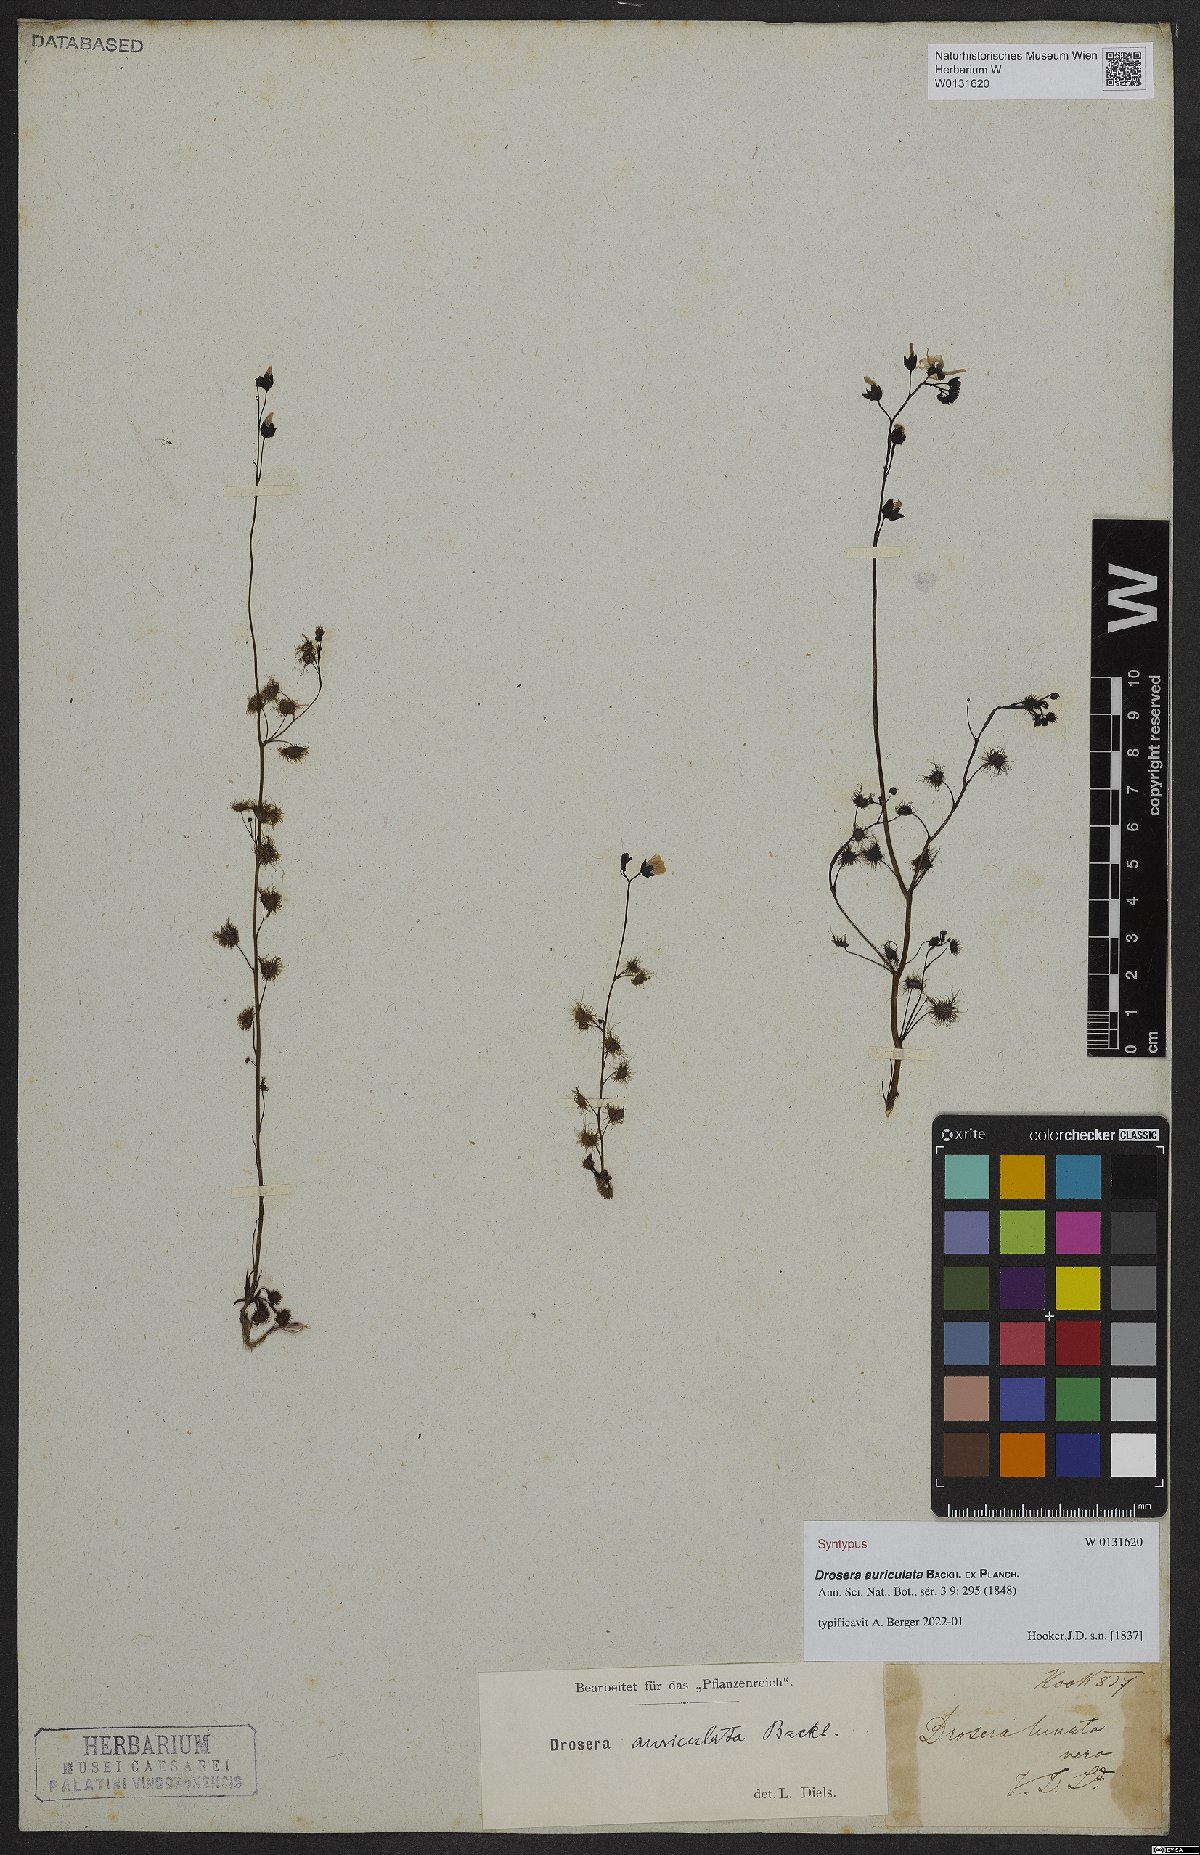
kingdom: Plantae
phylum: Tracheophyta
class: Magnoliopsida
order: Caryophyllales
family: Droseraceae
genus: Drosera
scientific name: Drosera peltata
